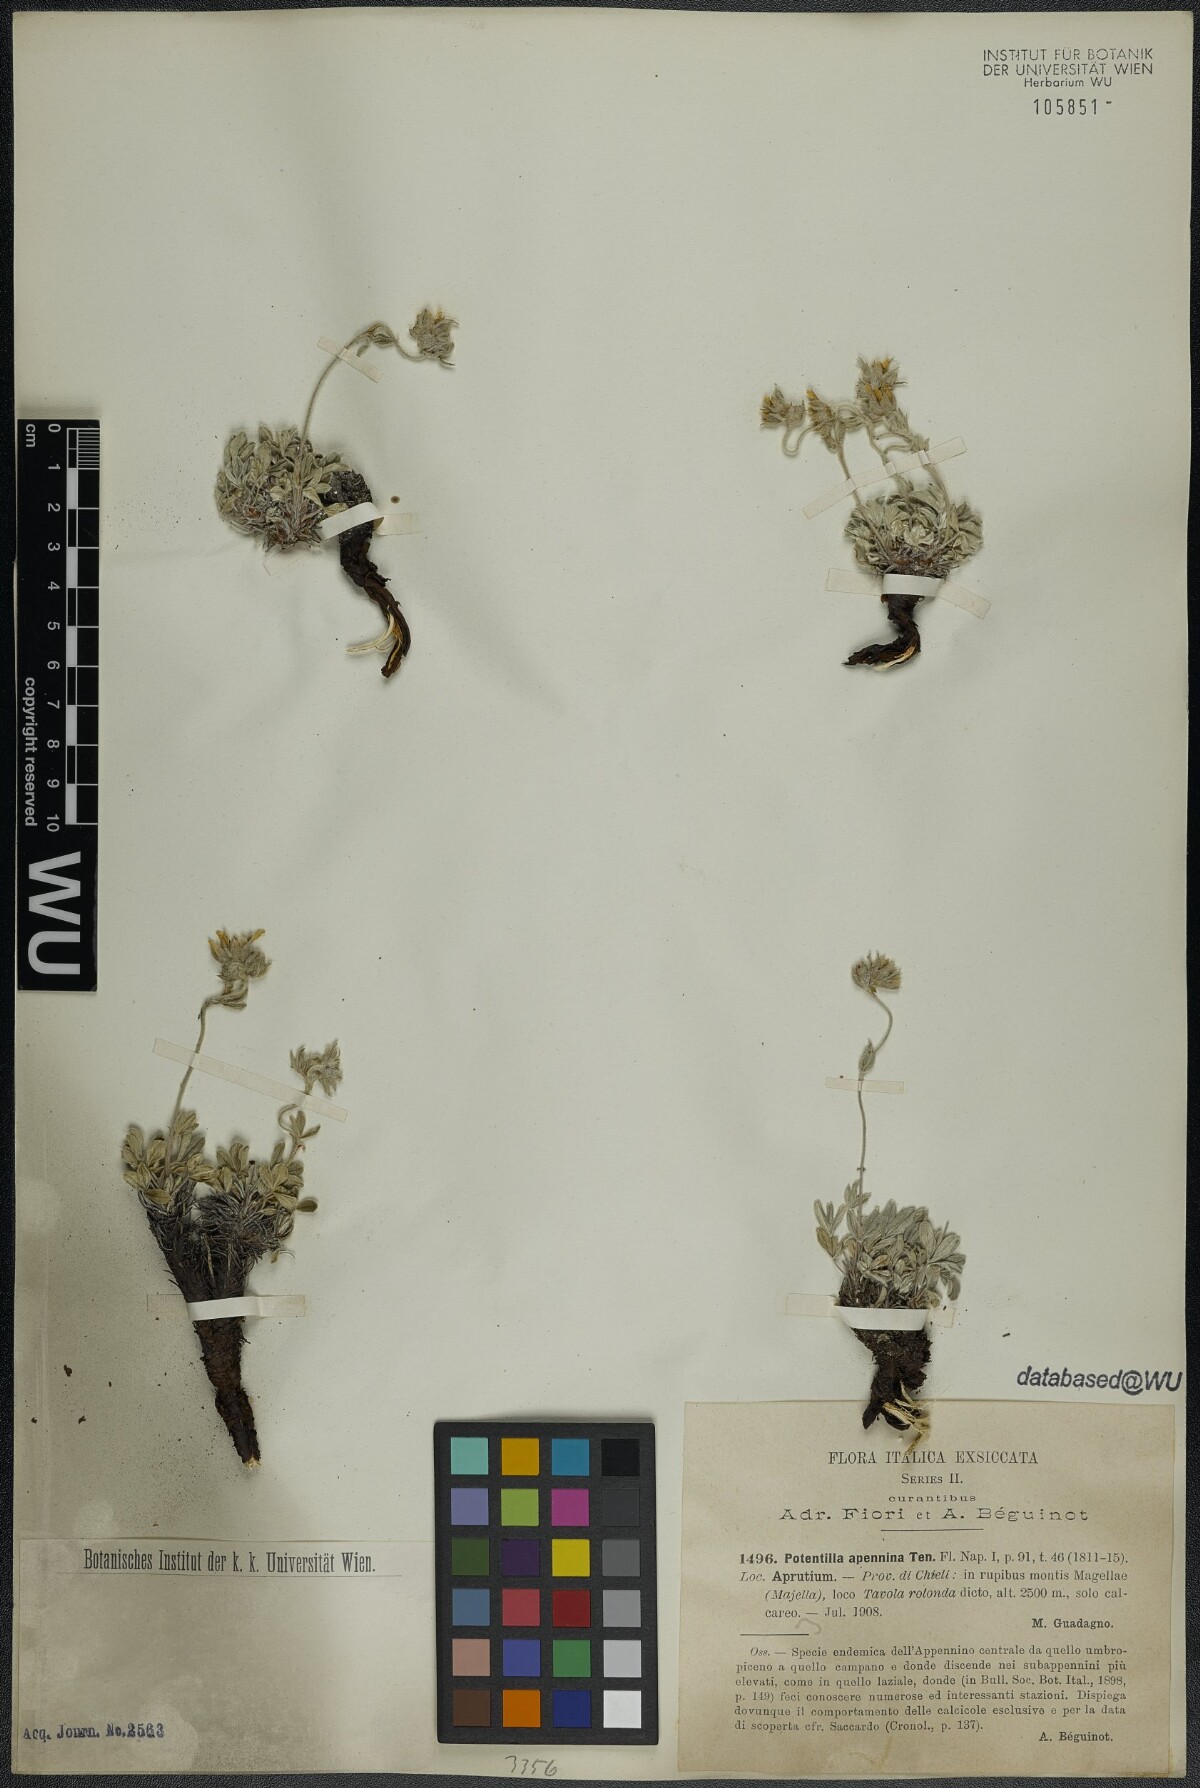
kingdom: Plantae
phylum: Tracheophyta
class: Magnoliopsida
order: Rosales
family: Rosaceae
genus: Potentilla
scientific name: Potentilla apennina
